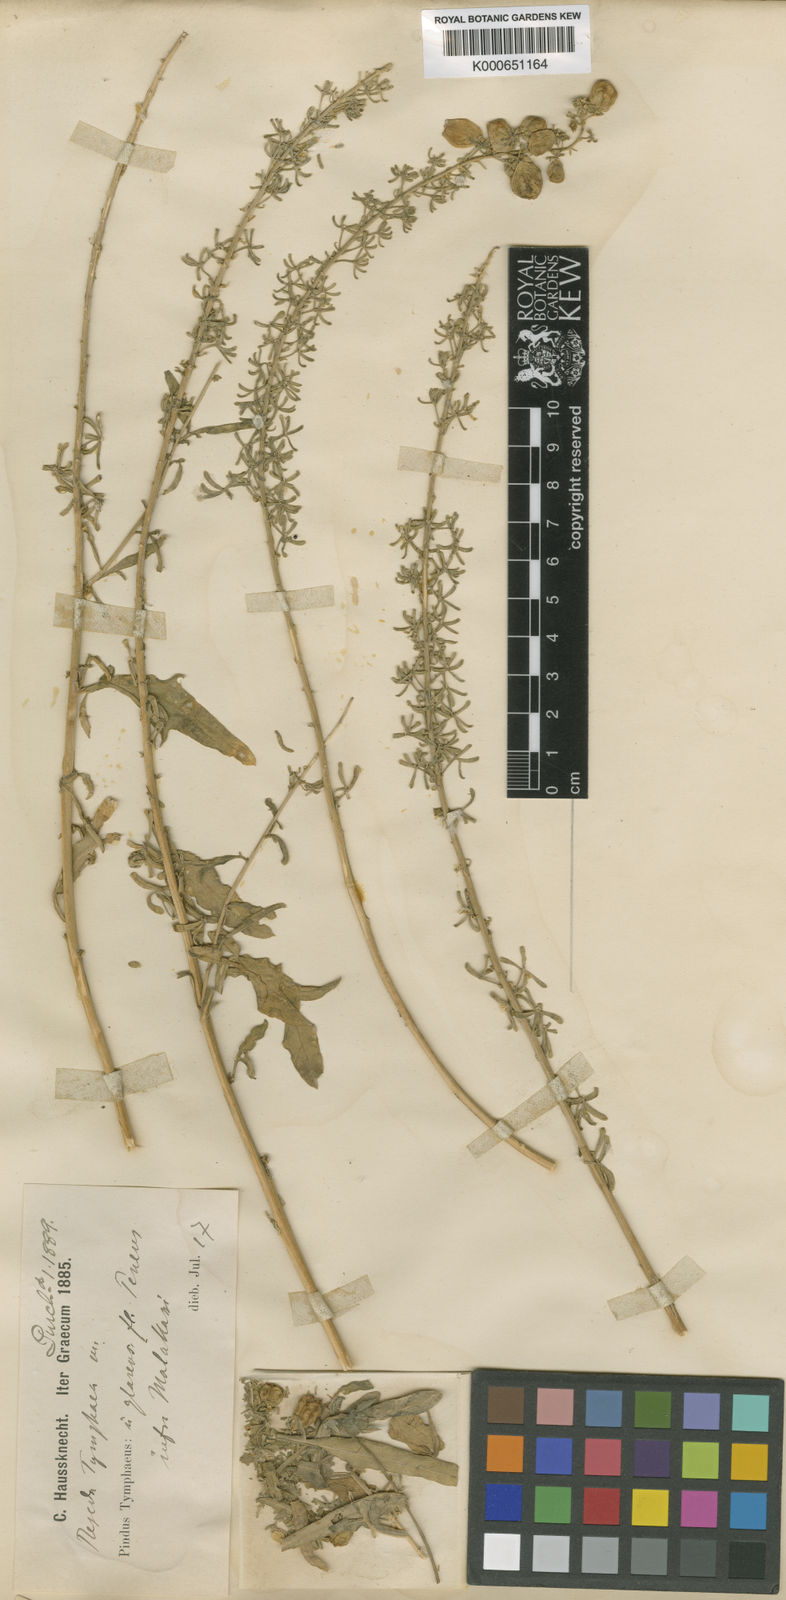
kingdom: Plantae
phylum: Tracheophyta
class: Magnoliopsida
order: Brassicales
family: Resedaceae
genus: Reseda
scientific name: Reseda tymphaea
